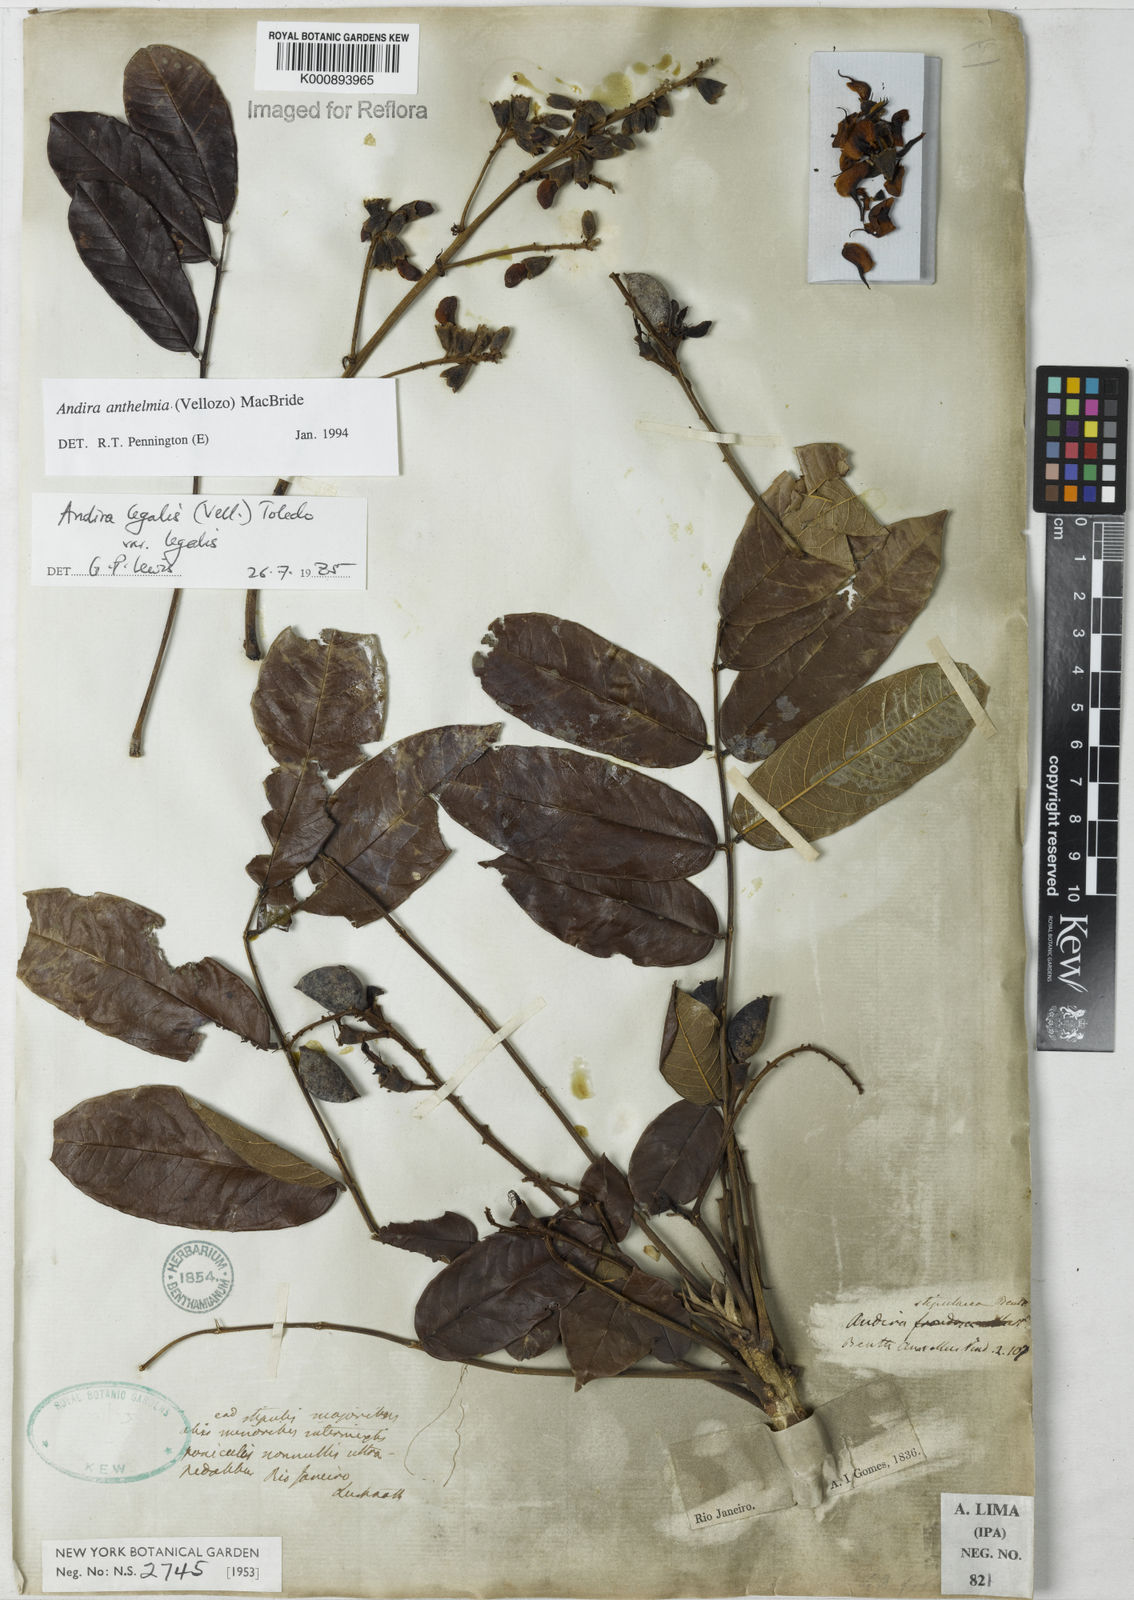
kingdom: Plantae
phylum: Tracheophyta
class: Magnoliopsida
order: Fabales
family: Fabaceae
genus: Andira
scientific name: Andira anthelmia
